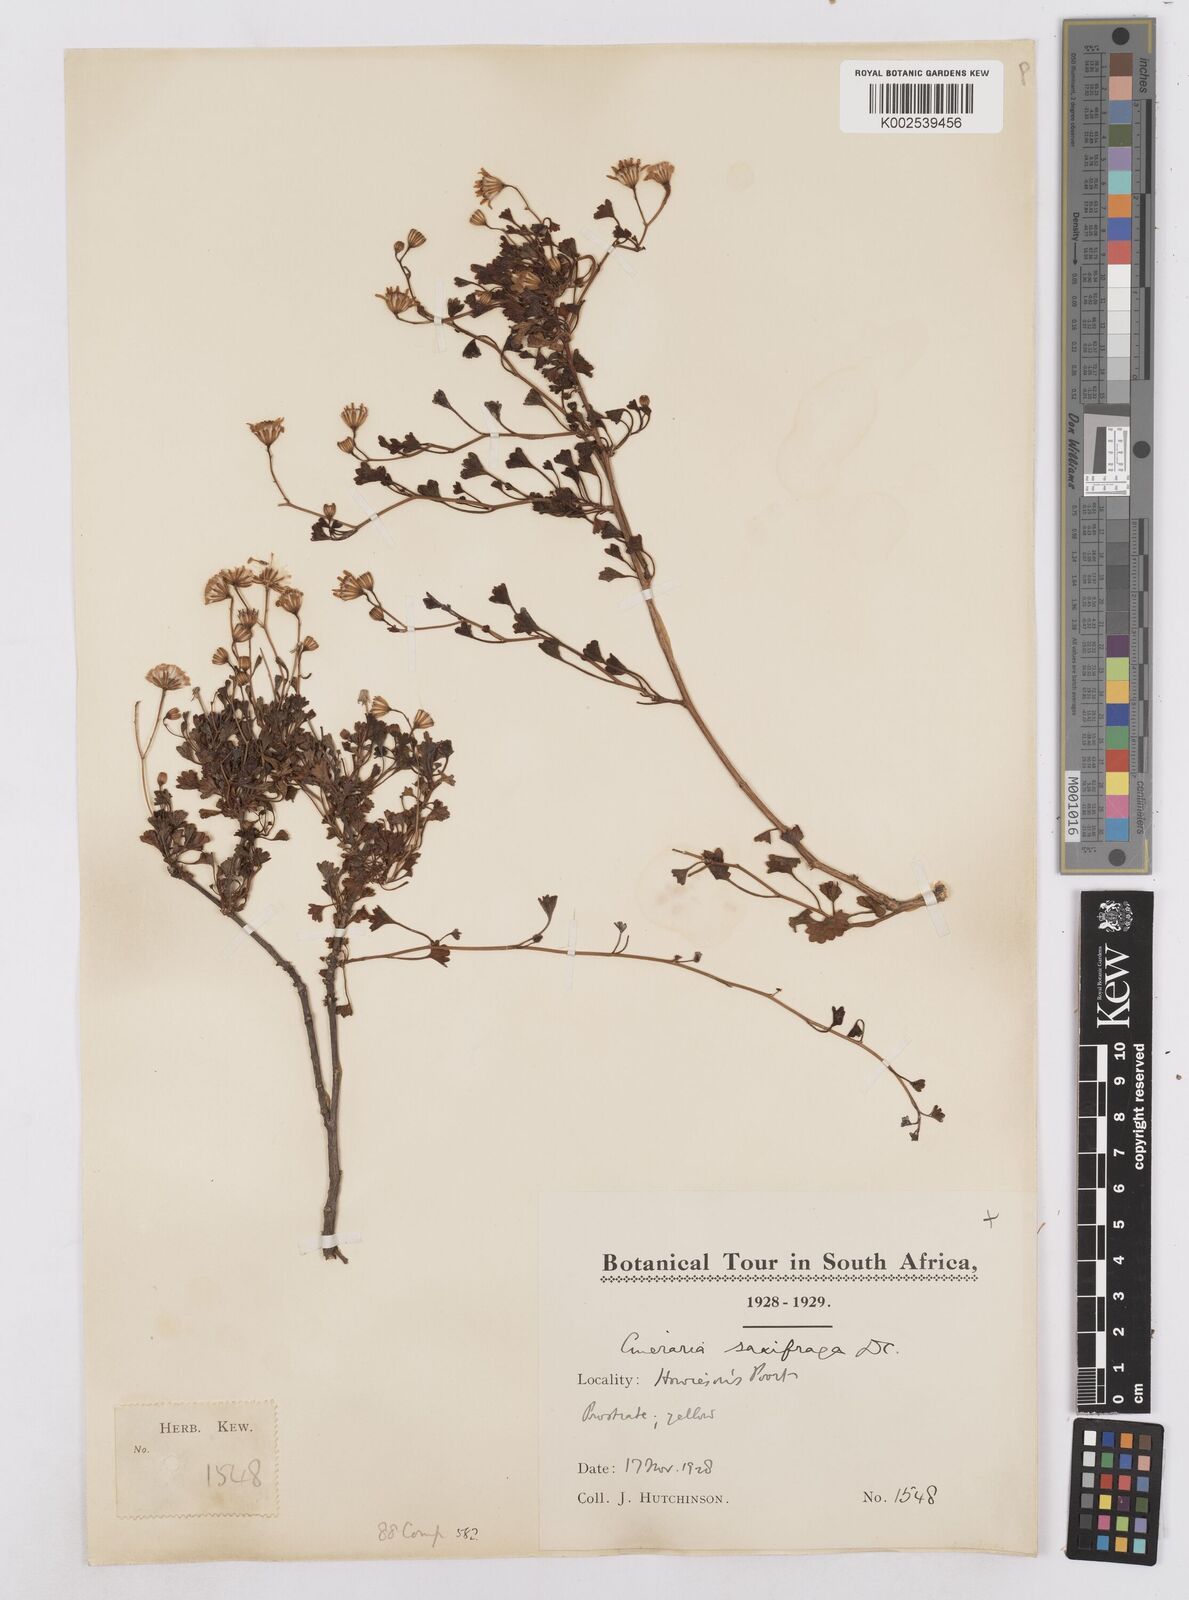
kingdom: Plantae
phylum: Tracheophyta
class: Magnoliopsida
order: Asterales
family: Asteraceae
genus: Cineraria
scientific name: Cineraria saxifraga
